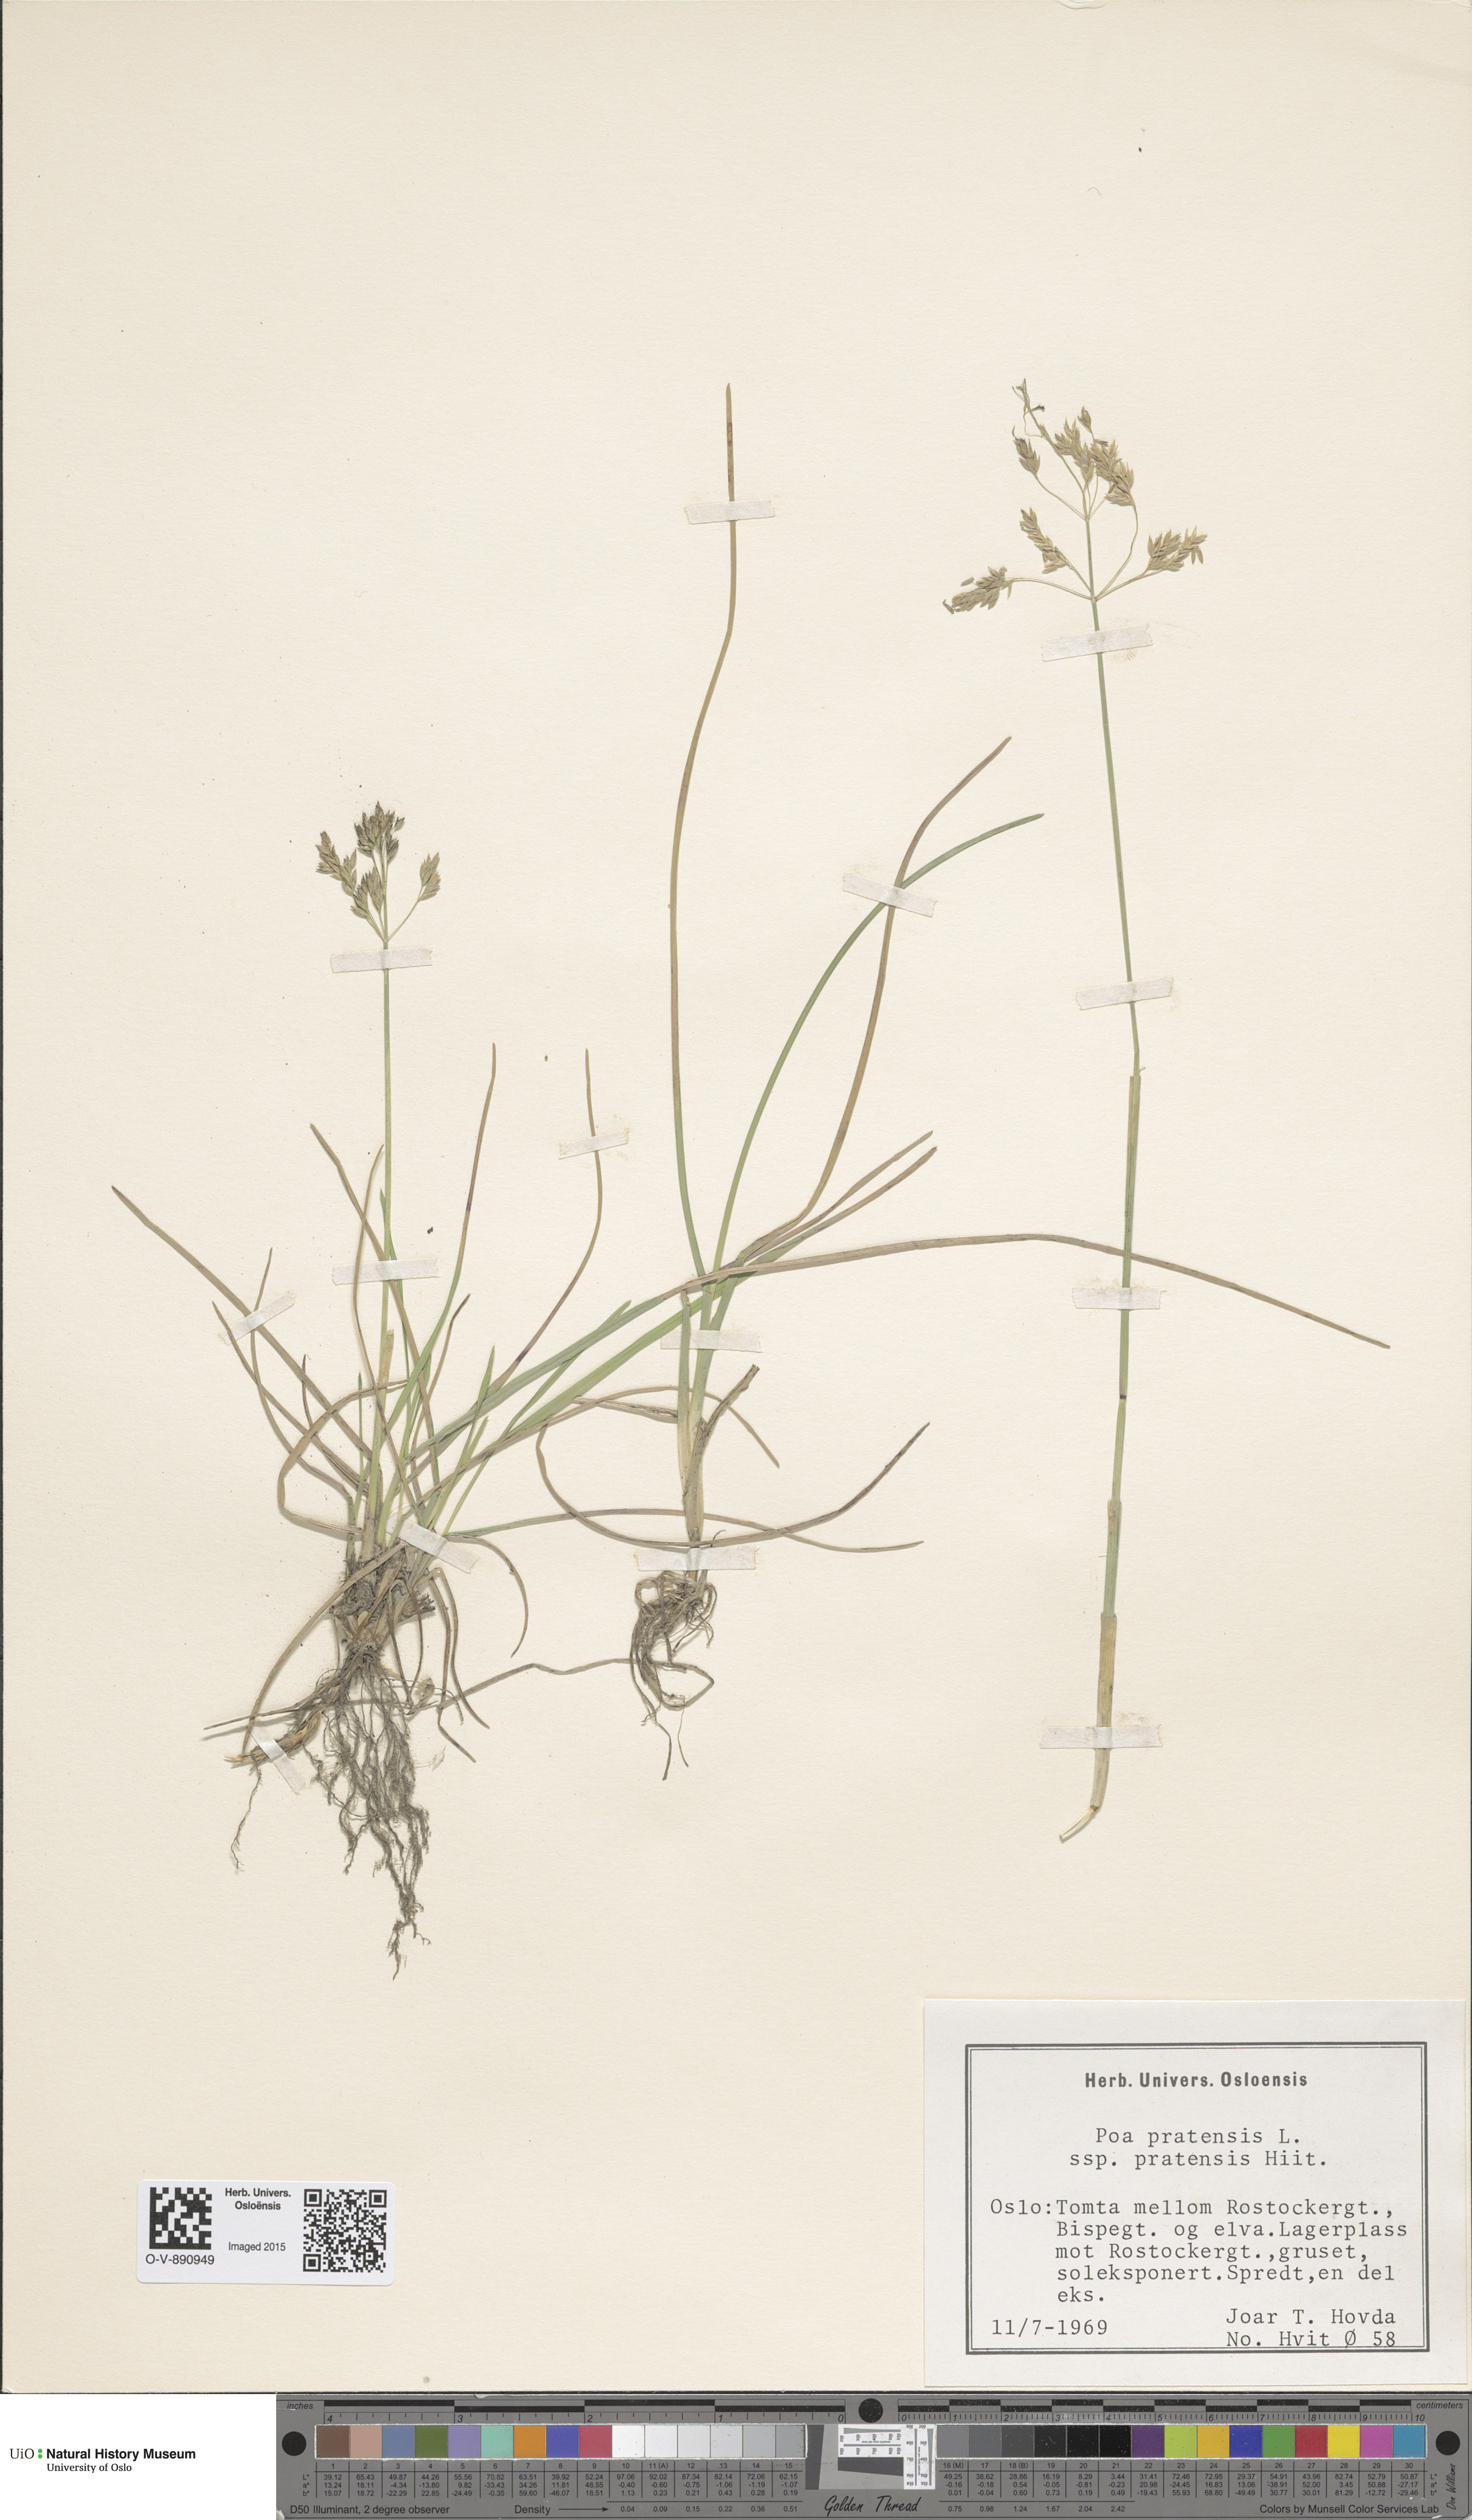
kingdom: Plantae
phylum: Tracheophyta
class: Liliopsida
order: Poales
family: Poaceae
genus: Poa
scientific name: Poa pratensis
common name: Kentucky bluegrass
